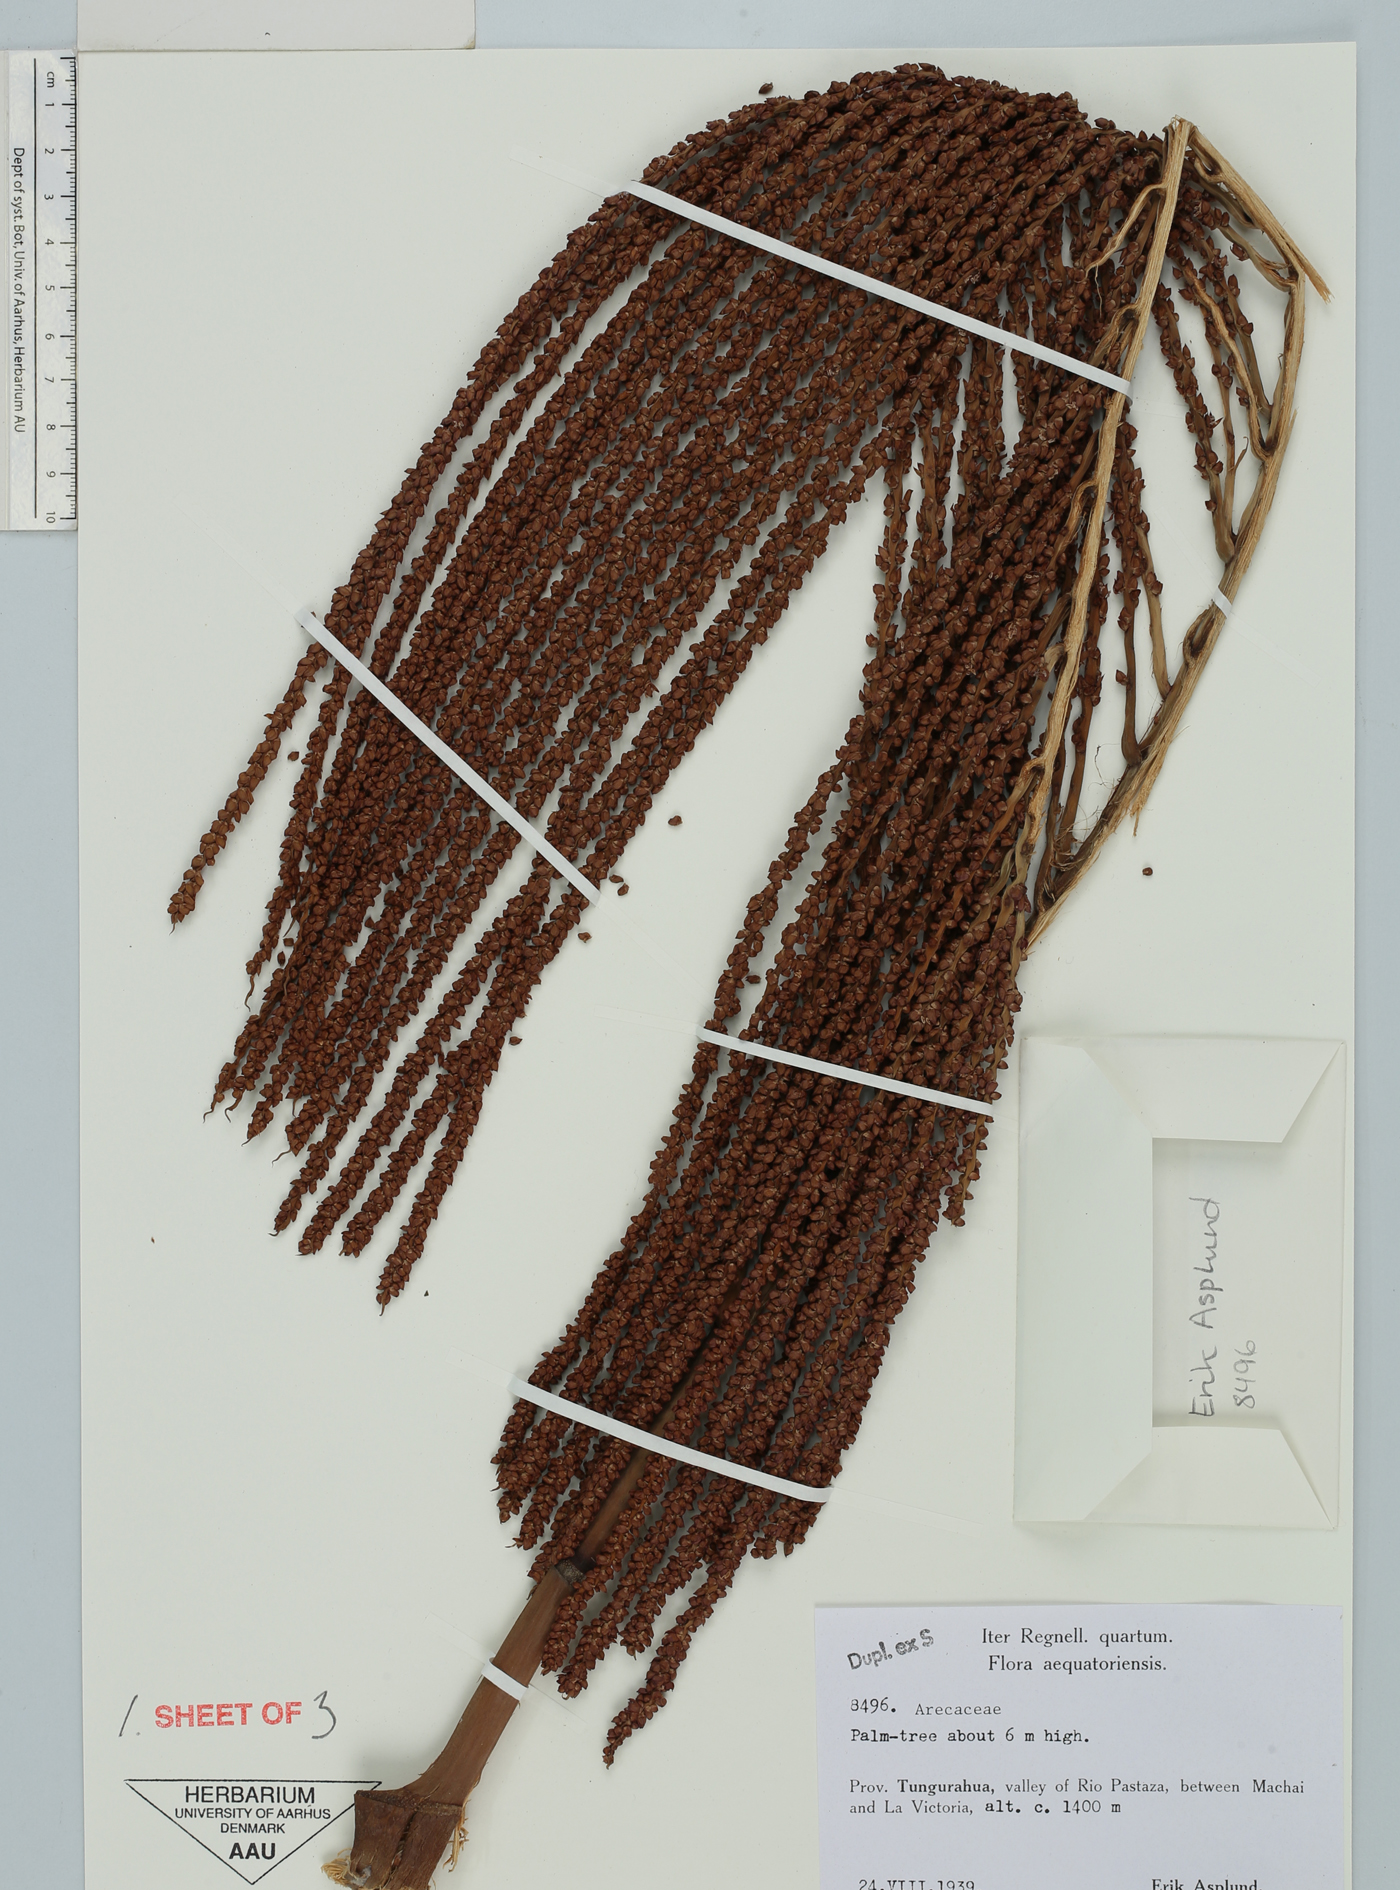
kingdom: Plantae
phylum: Tracheophyta
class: Liliopsida
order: Arecales
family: Arecaceae
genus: Prestoea
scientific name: Prestoea
